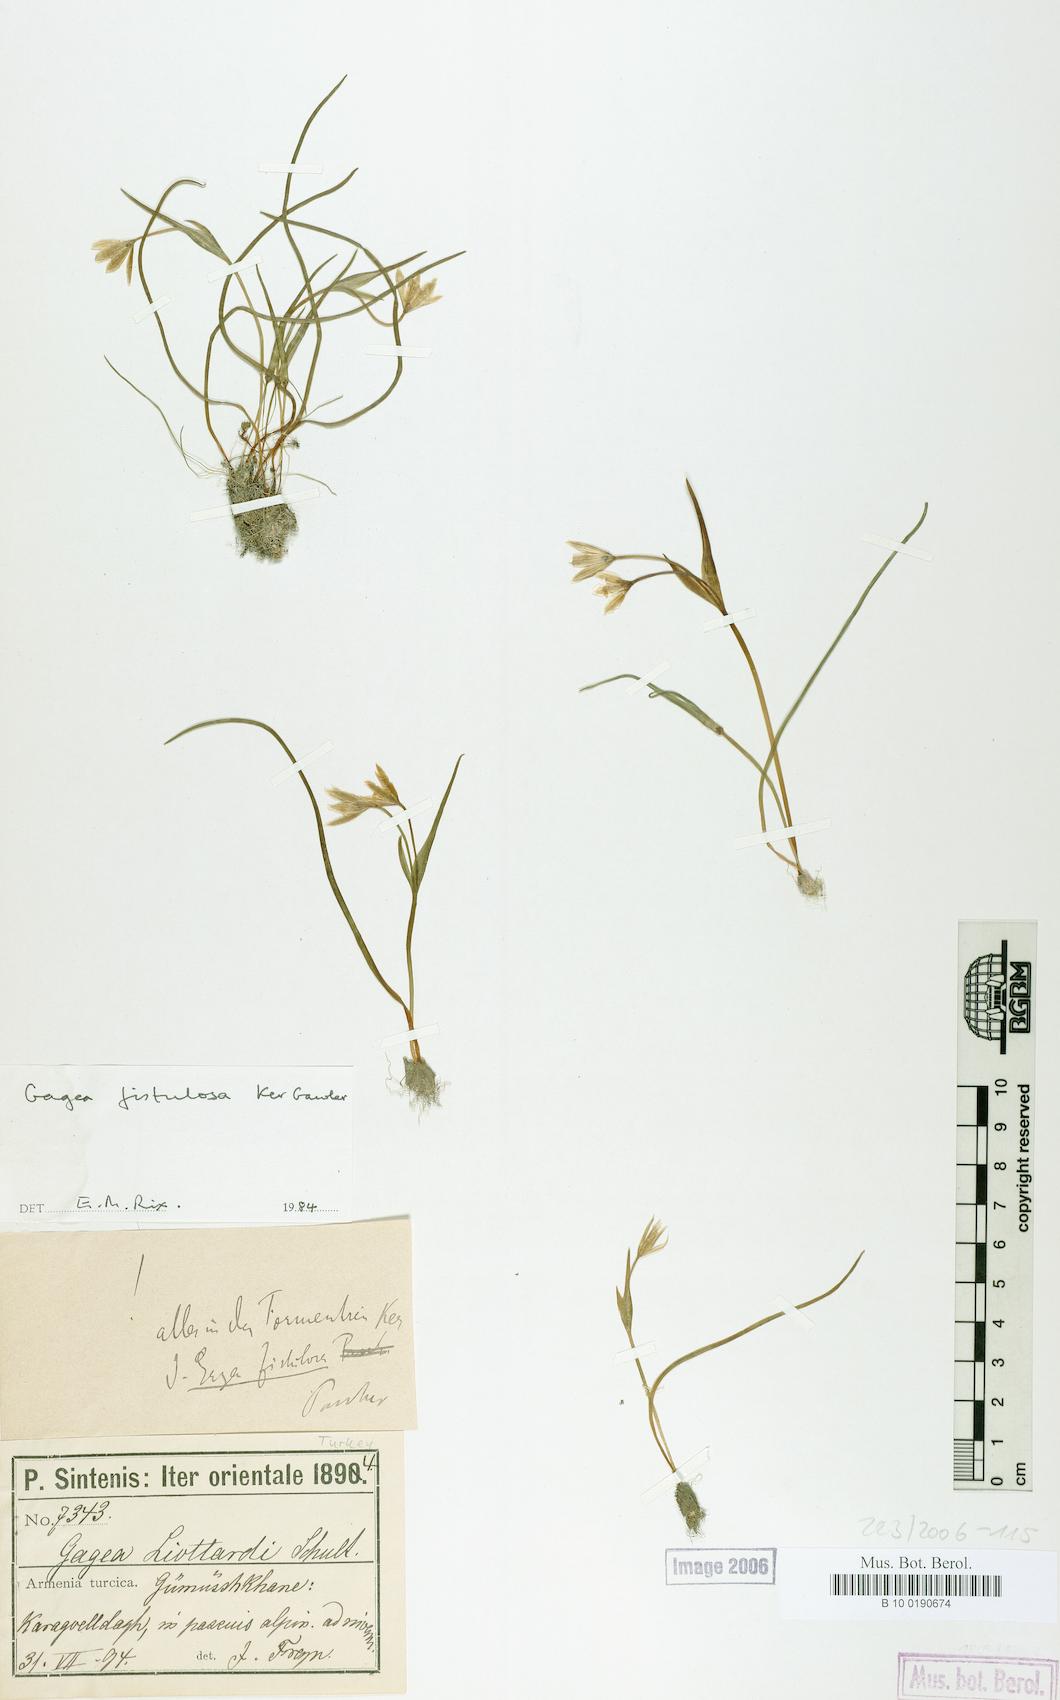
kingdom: Plantae
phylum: Tracheophyta
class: Liliopsida
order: Liliales
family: Liliaceae
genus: Gagea
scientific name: Gagea bohemica
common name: Early star-of-bethlehem
